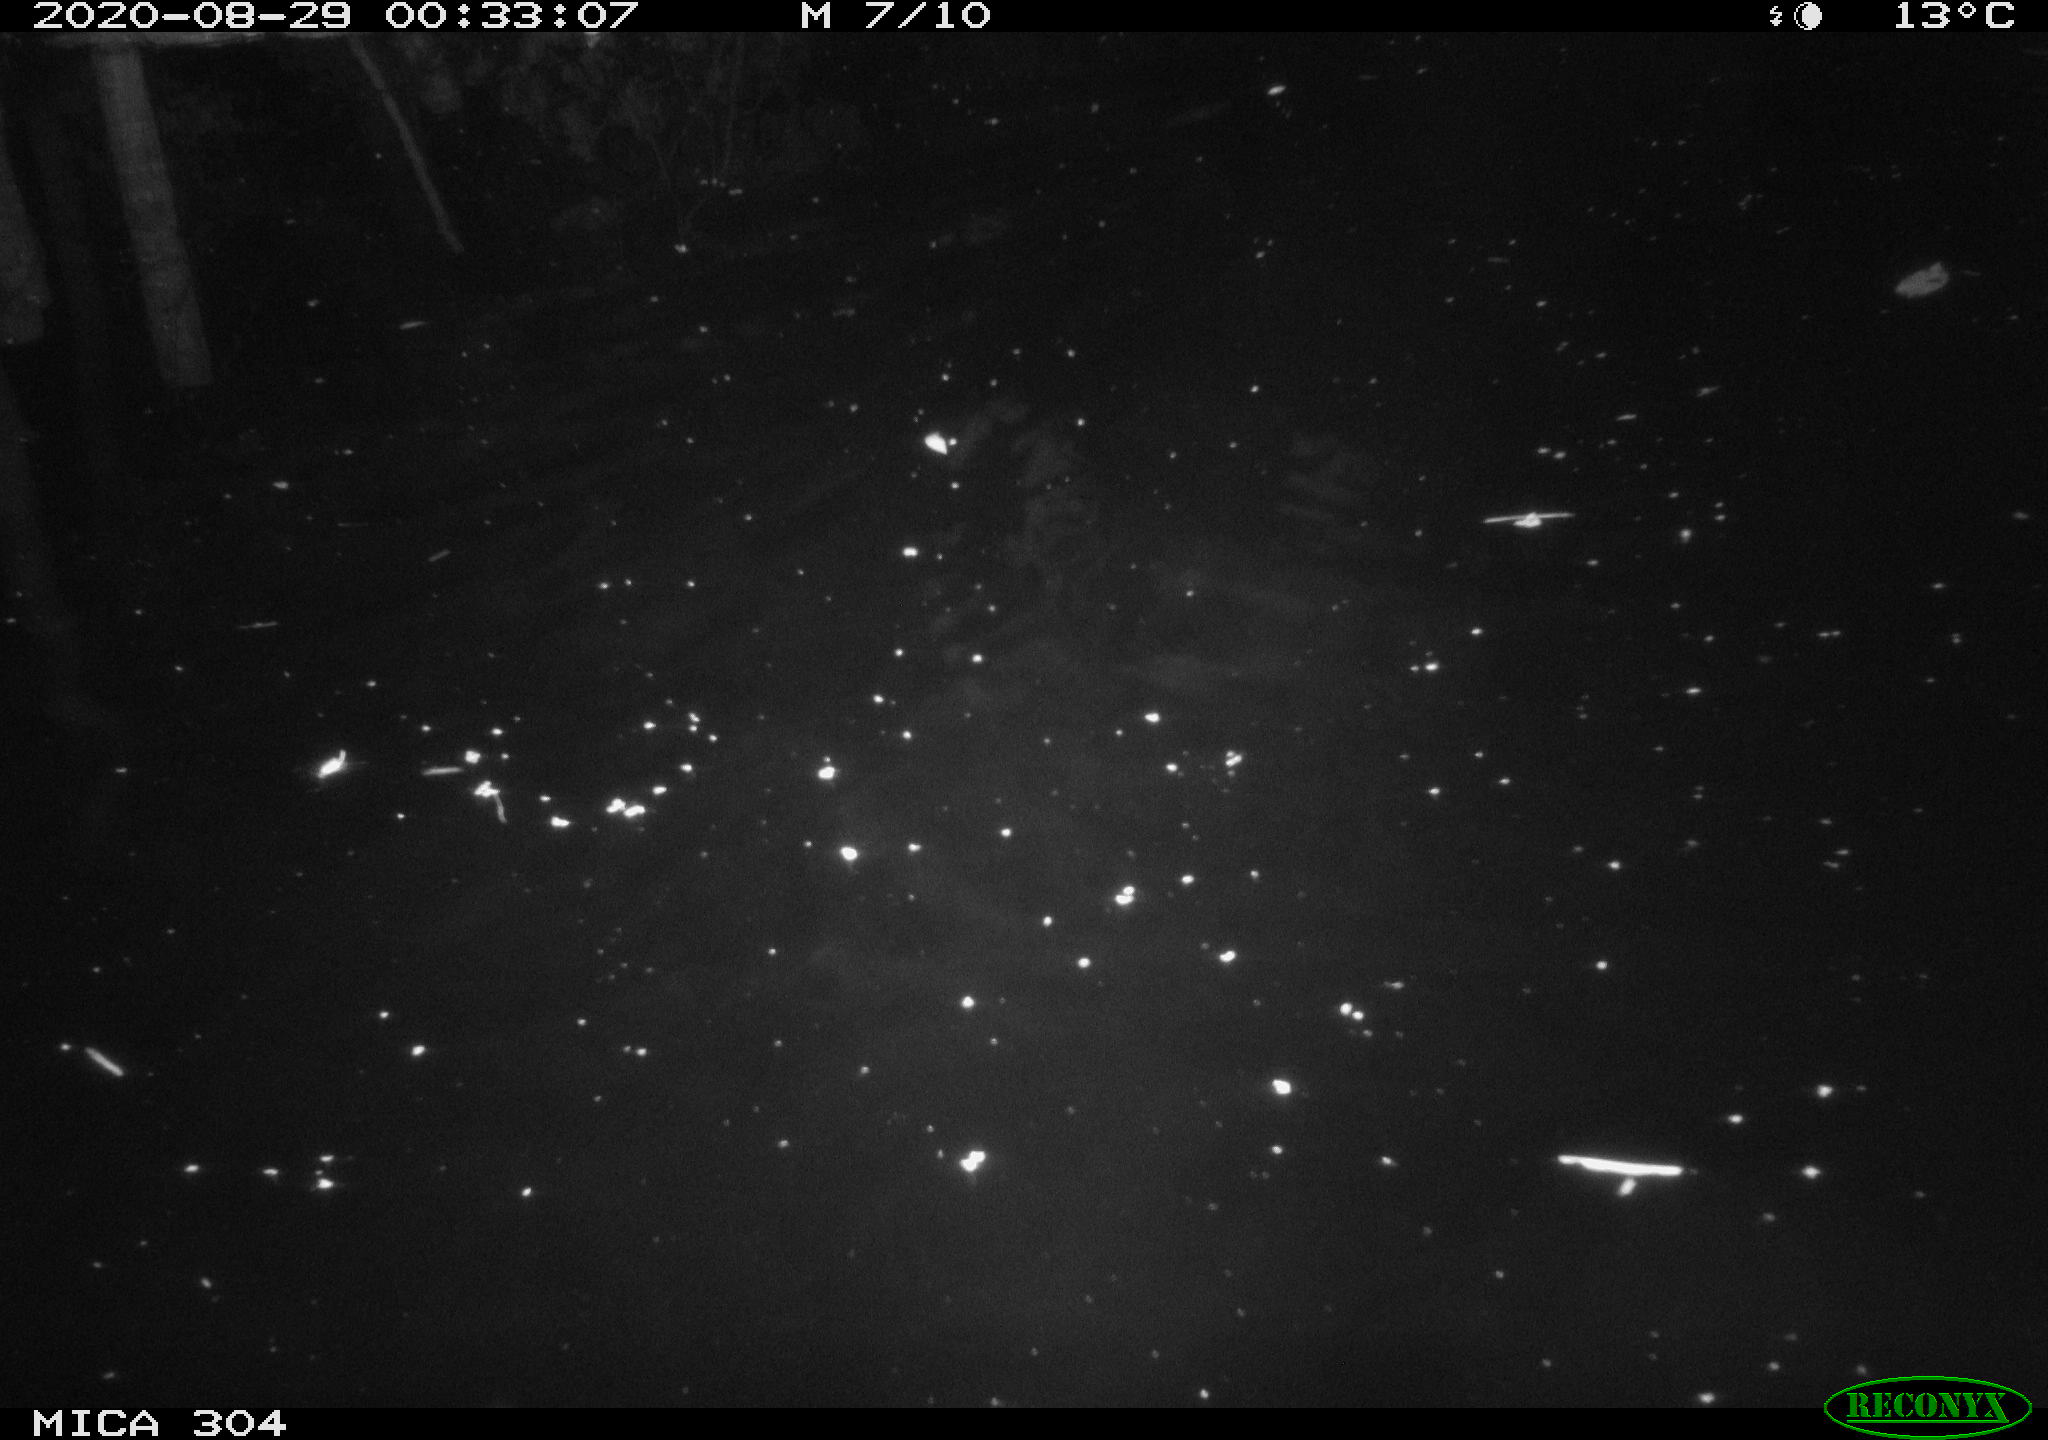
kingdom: Animalia
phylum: Chordata
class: Mammalia
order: Rodentia
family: Cricetidae
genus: Ondatra
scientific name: Ondatra zibethicus
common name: Muskrat
